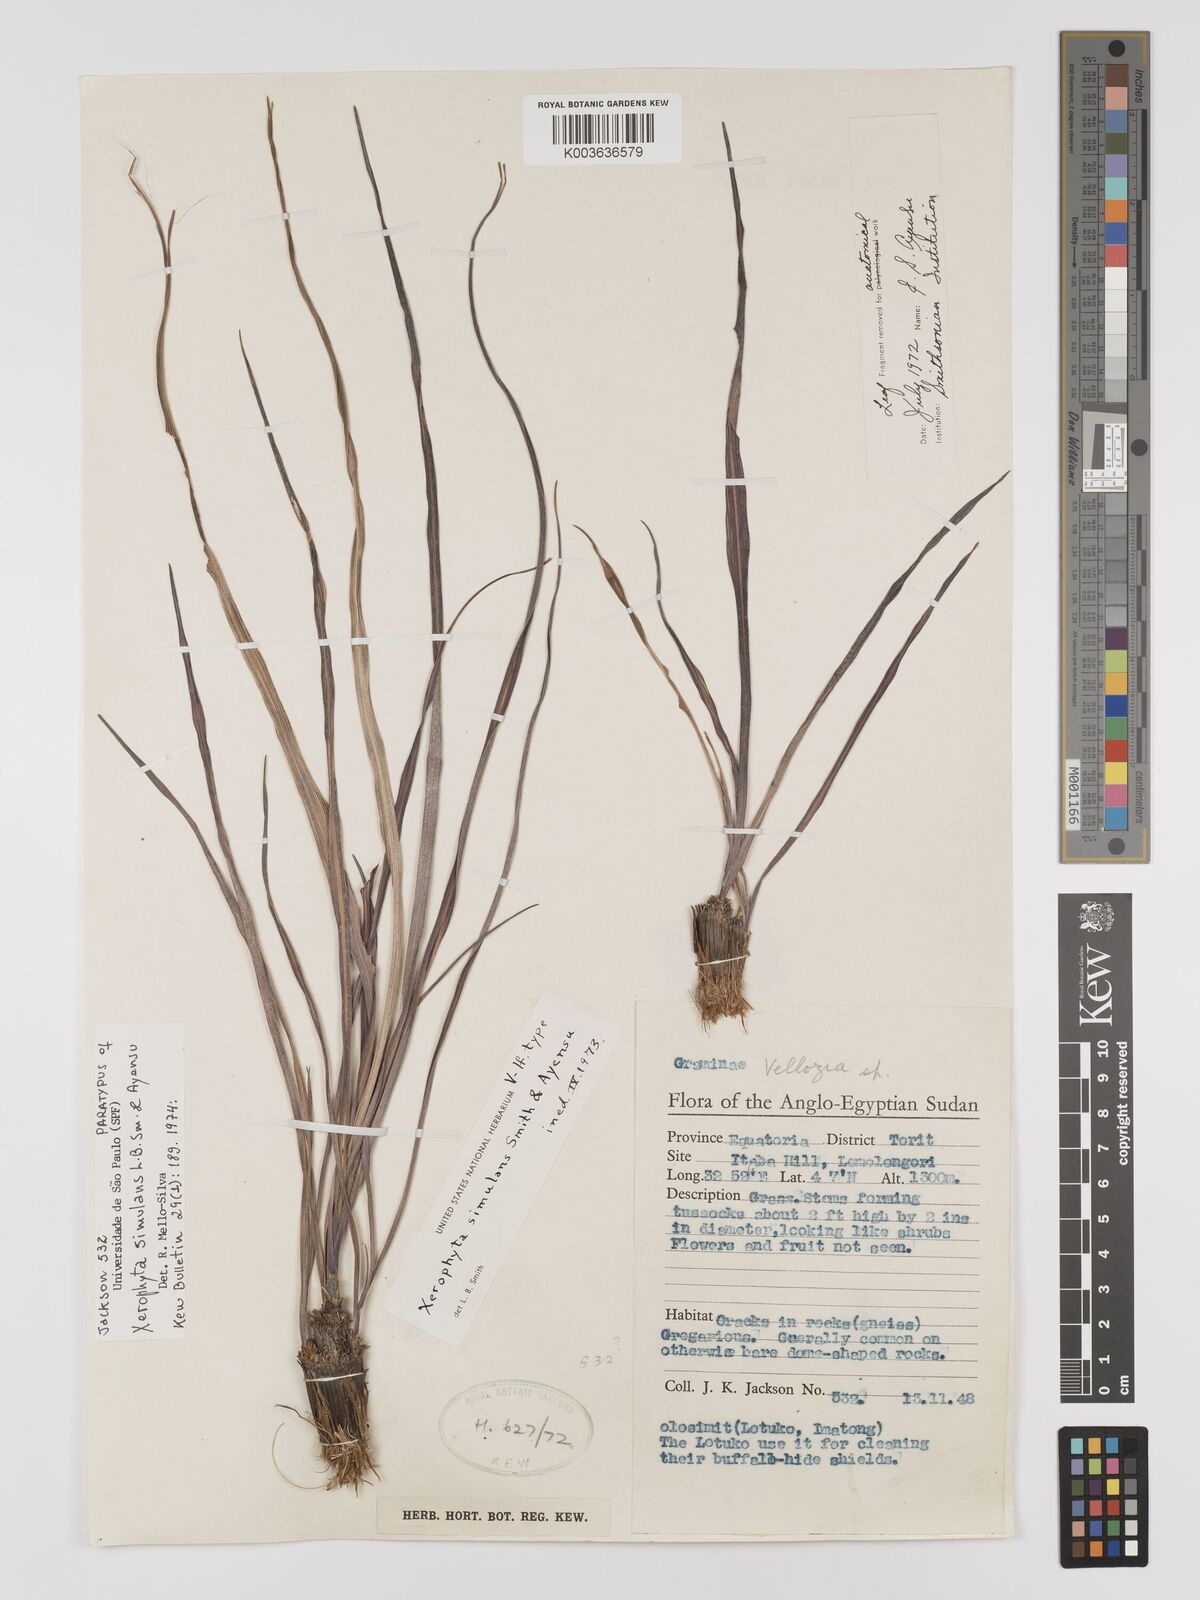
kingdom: Plantae
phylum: Tracheophyta
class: Liliopsida
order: Pandanales
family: Velloziaceae
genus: Xerophyta
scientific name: Xerophyta simulans
